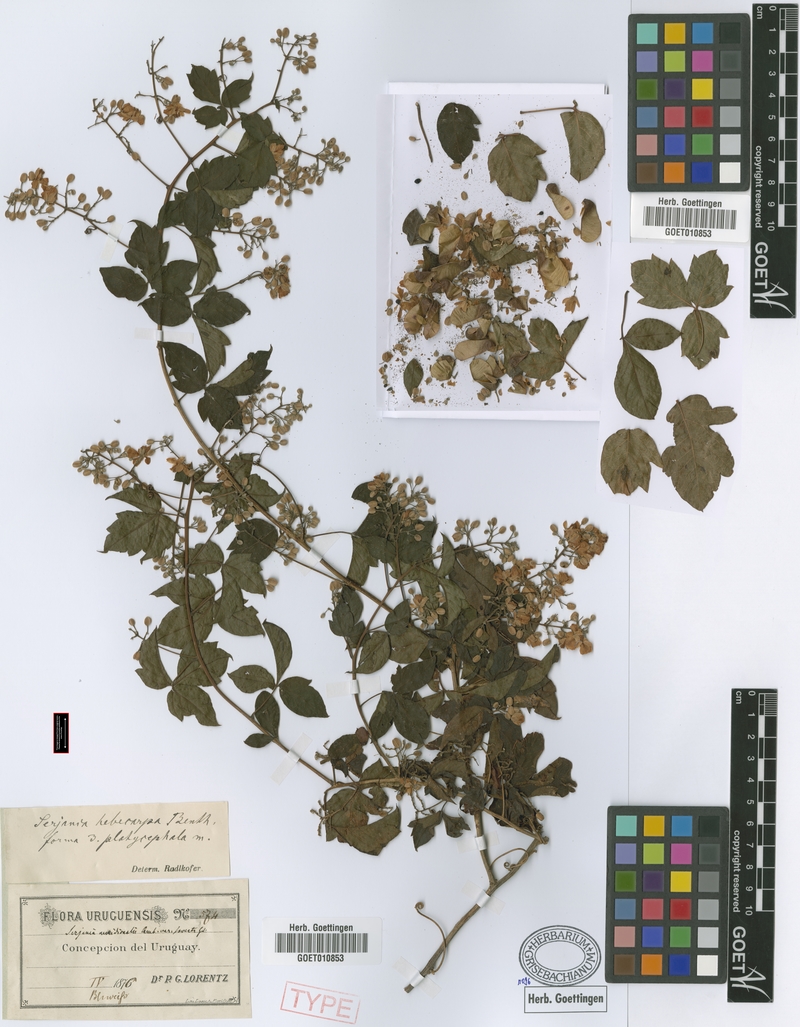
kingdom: Plantae
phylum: Tracheophyta
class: Magnoliopsida
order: Sapindales
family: Sapindaceae
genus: Serjania
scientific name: Serjania hebecarpa
